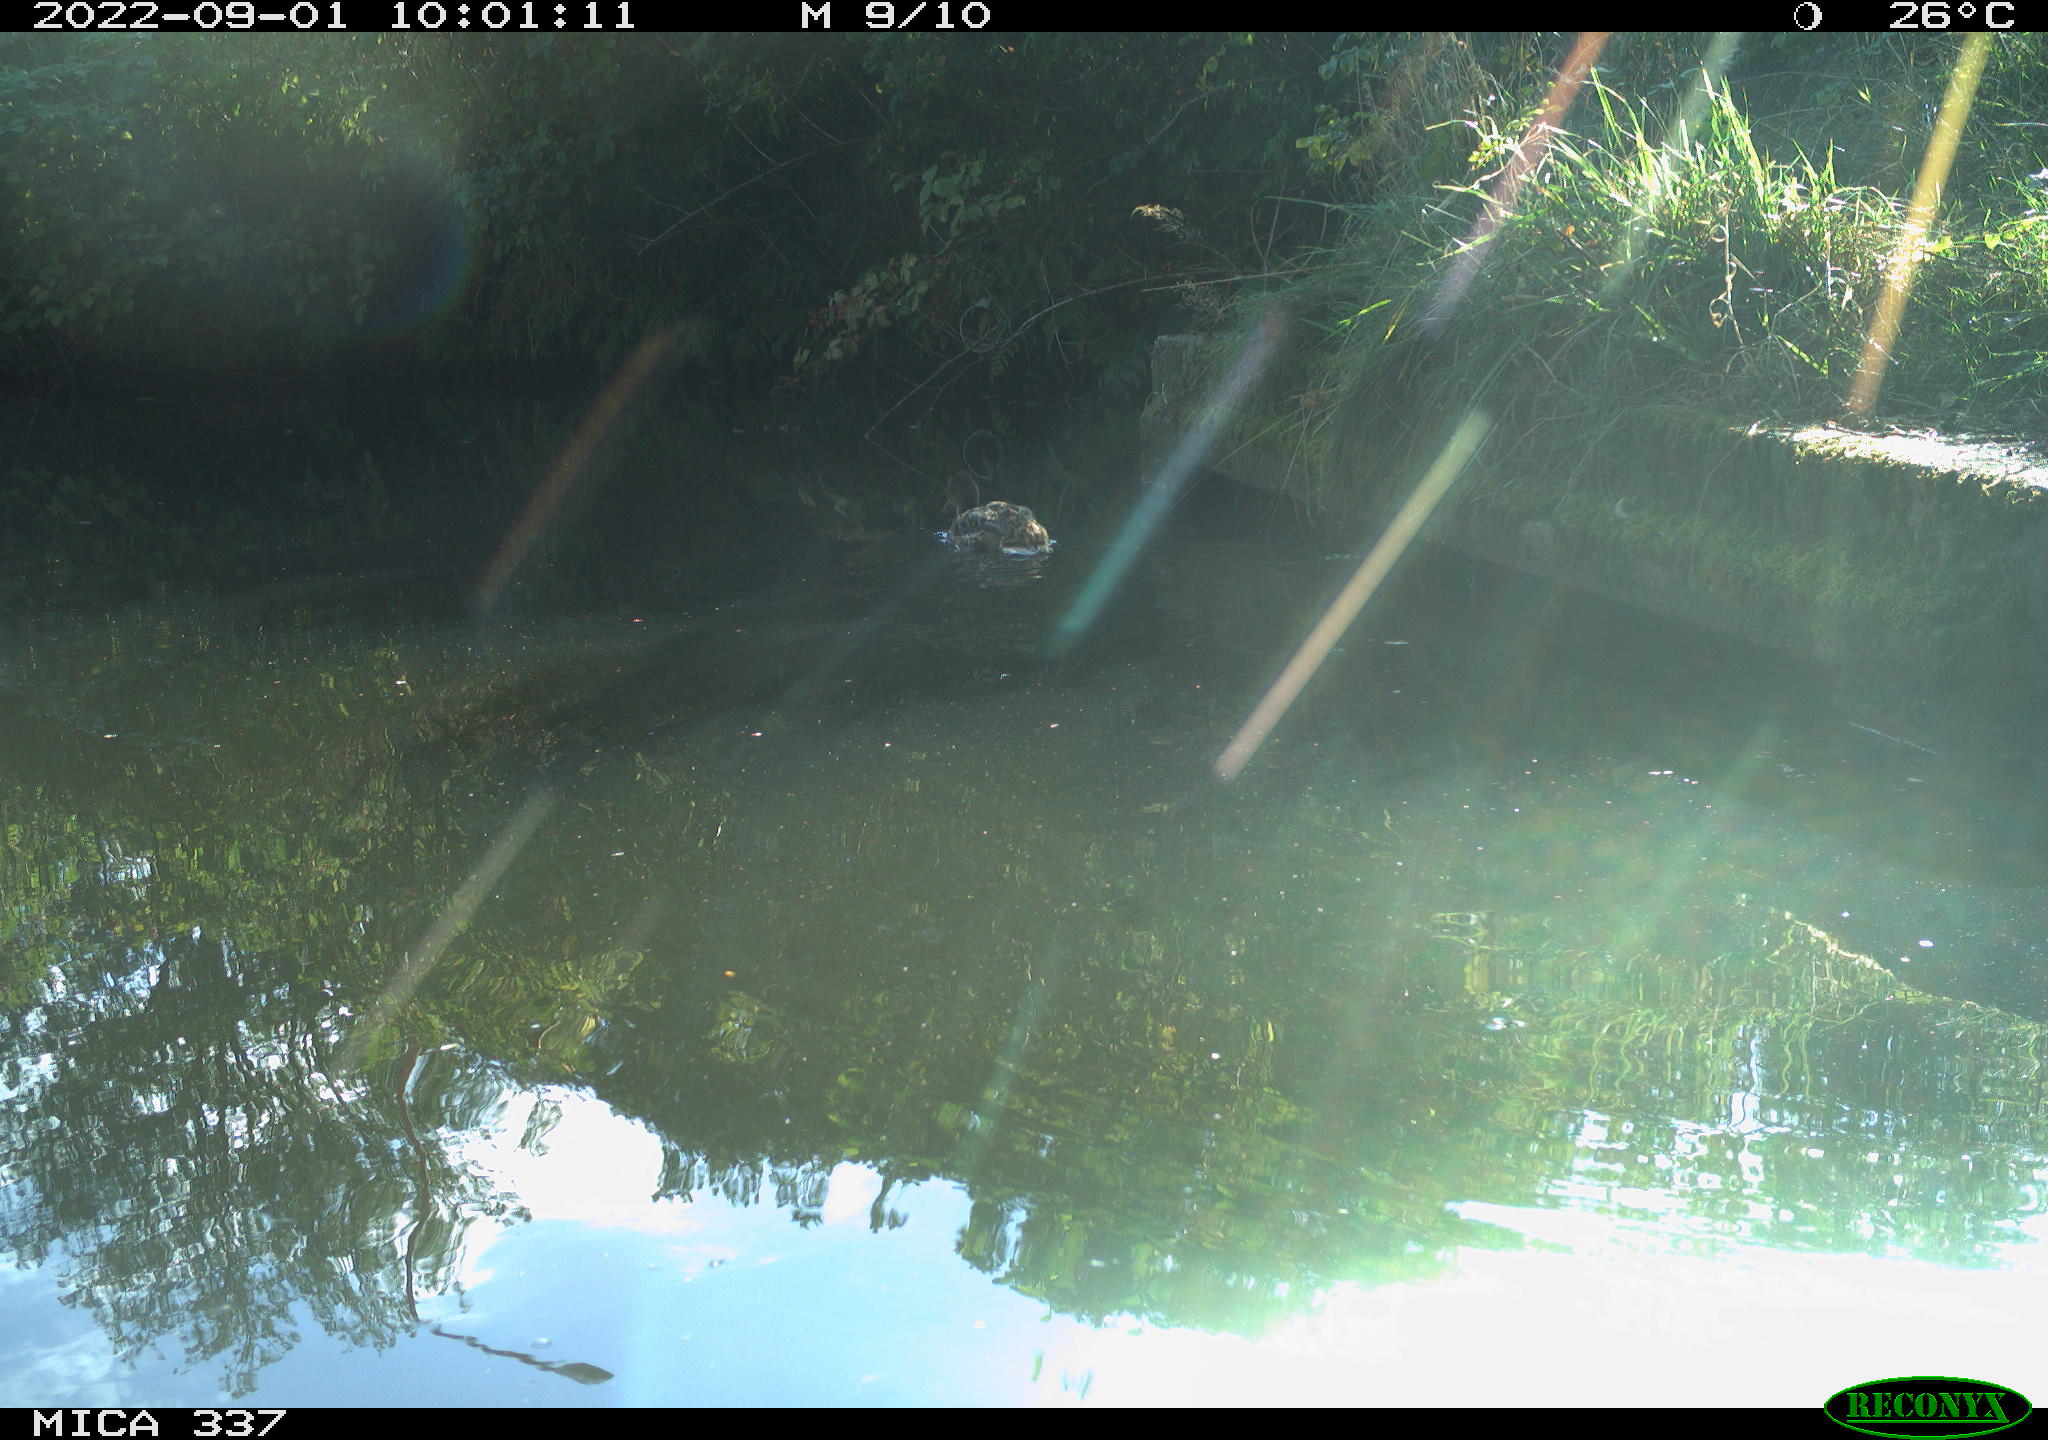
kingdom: Animalia
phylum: Chordata
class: Aves
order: Anseriformes
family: Anatidae
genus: Anas
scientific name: Anas platyrhynchos
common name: Mallard
